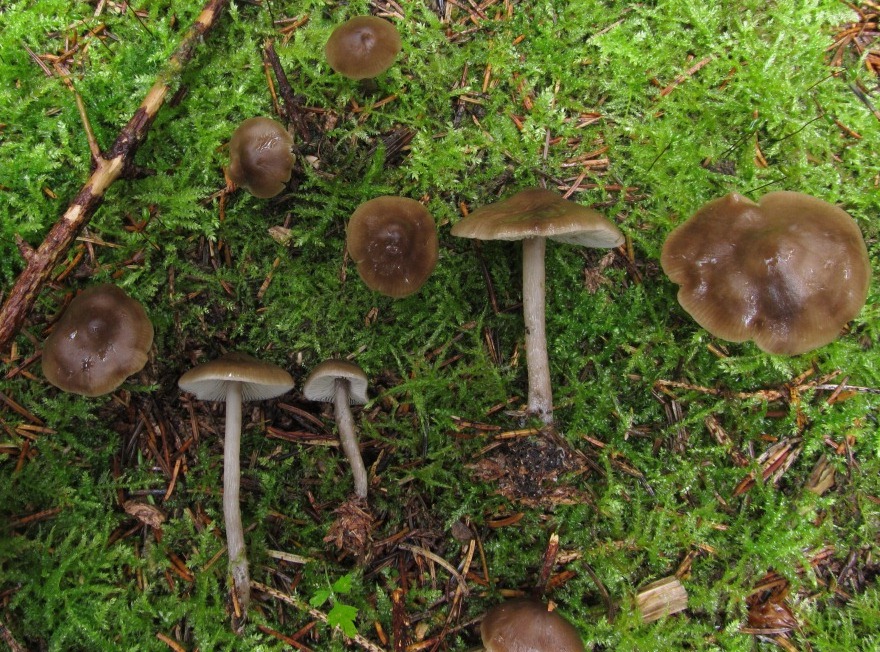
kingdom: Fungi
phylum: Basidiomycota
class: Agaricomycetes
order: Agaricales
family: Lyophyllaceae
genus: Myochromella
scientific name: Myochromella boudieri
